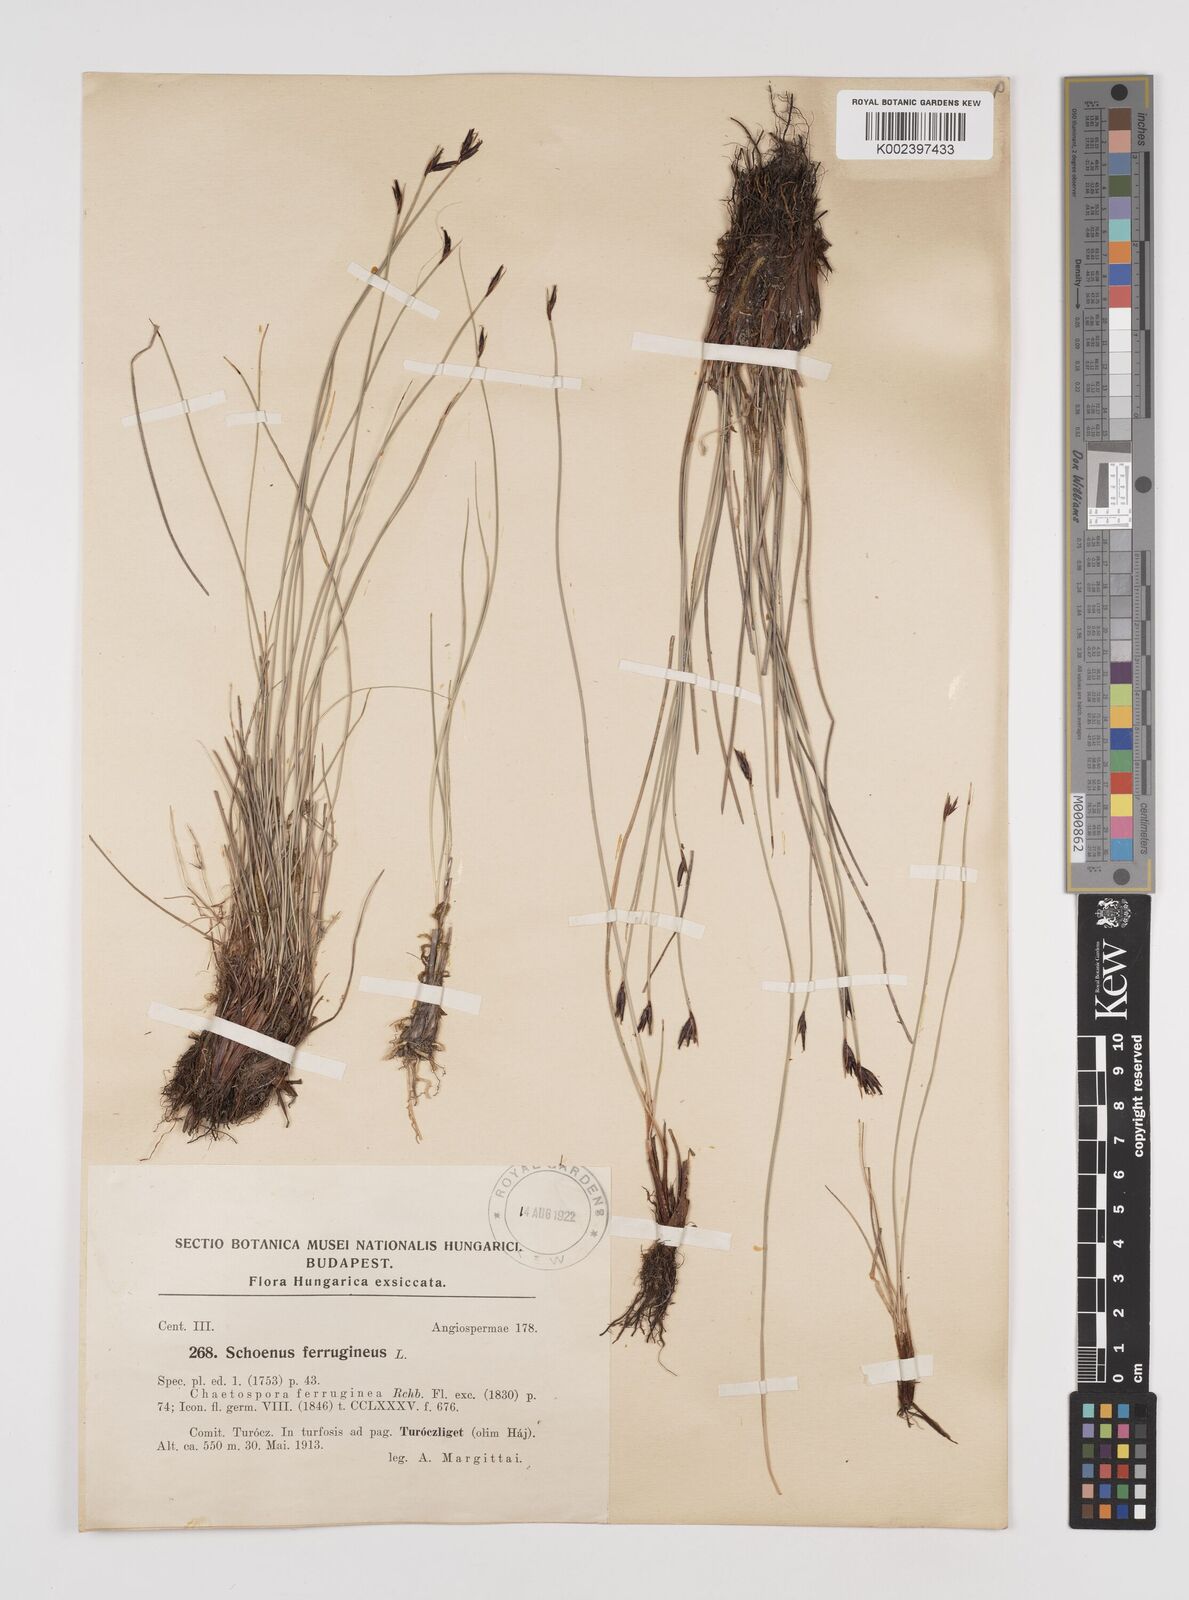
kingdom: Plantae
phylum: Tracheophyta
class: Liliopsida
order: Poales
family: Cyperaceae
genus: Schoenus
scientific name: Schoenus ferrugineus
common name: Brown bog-rush
